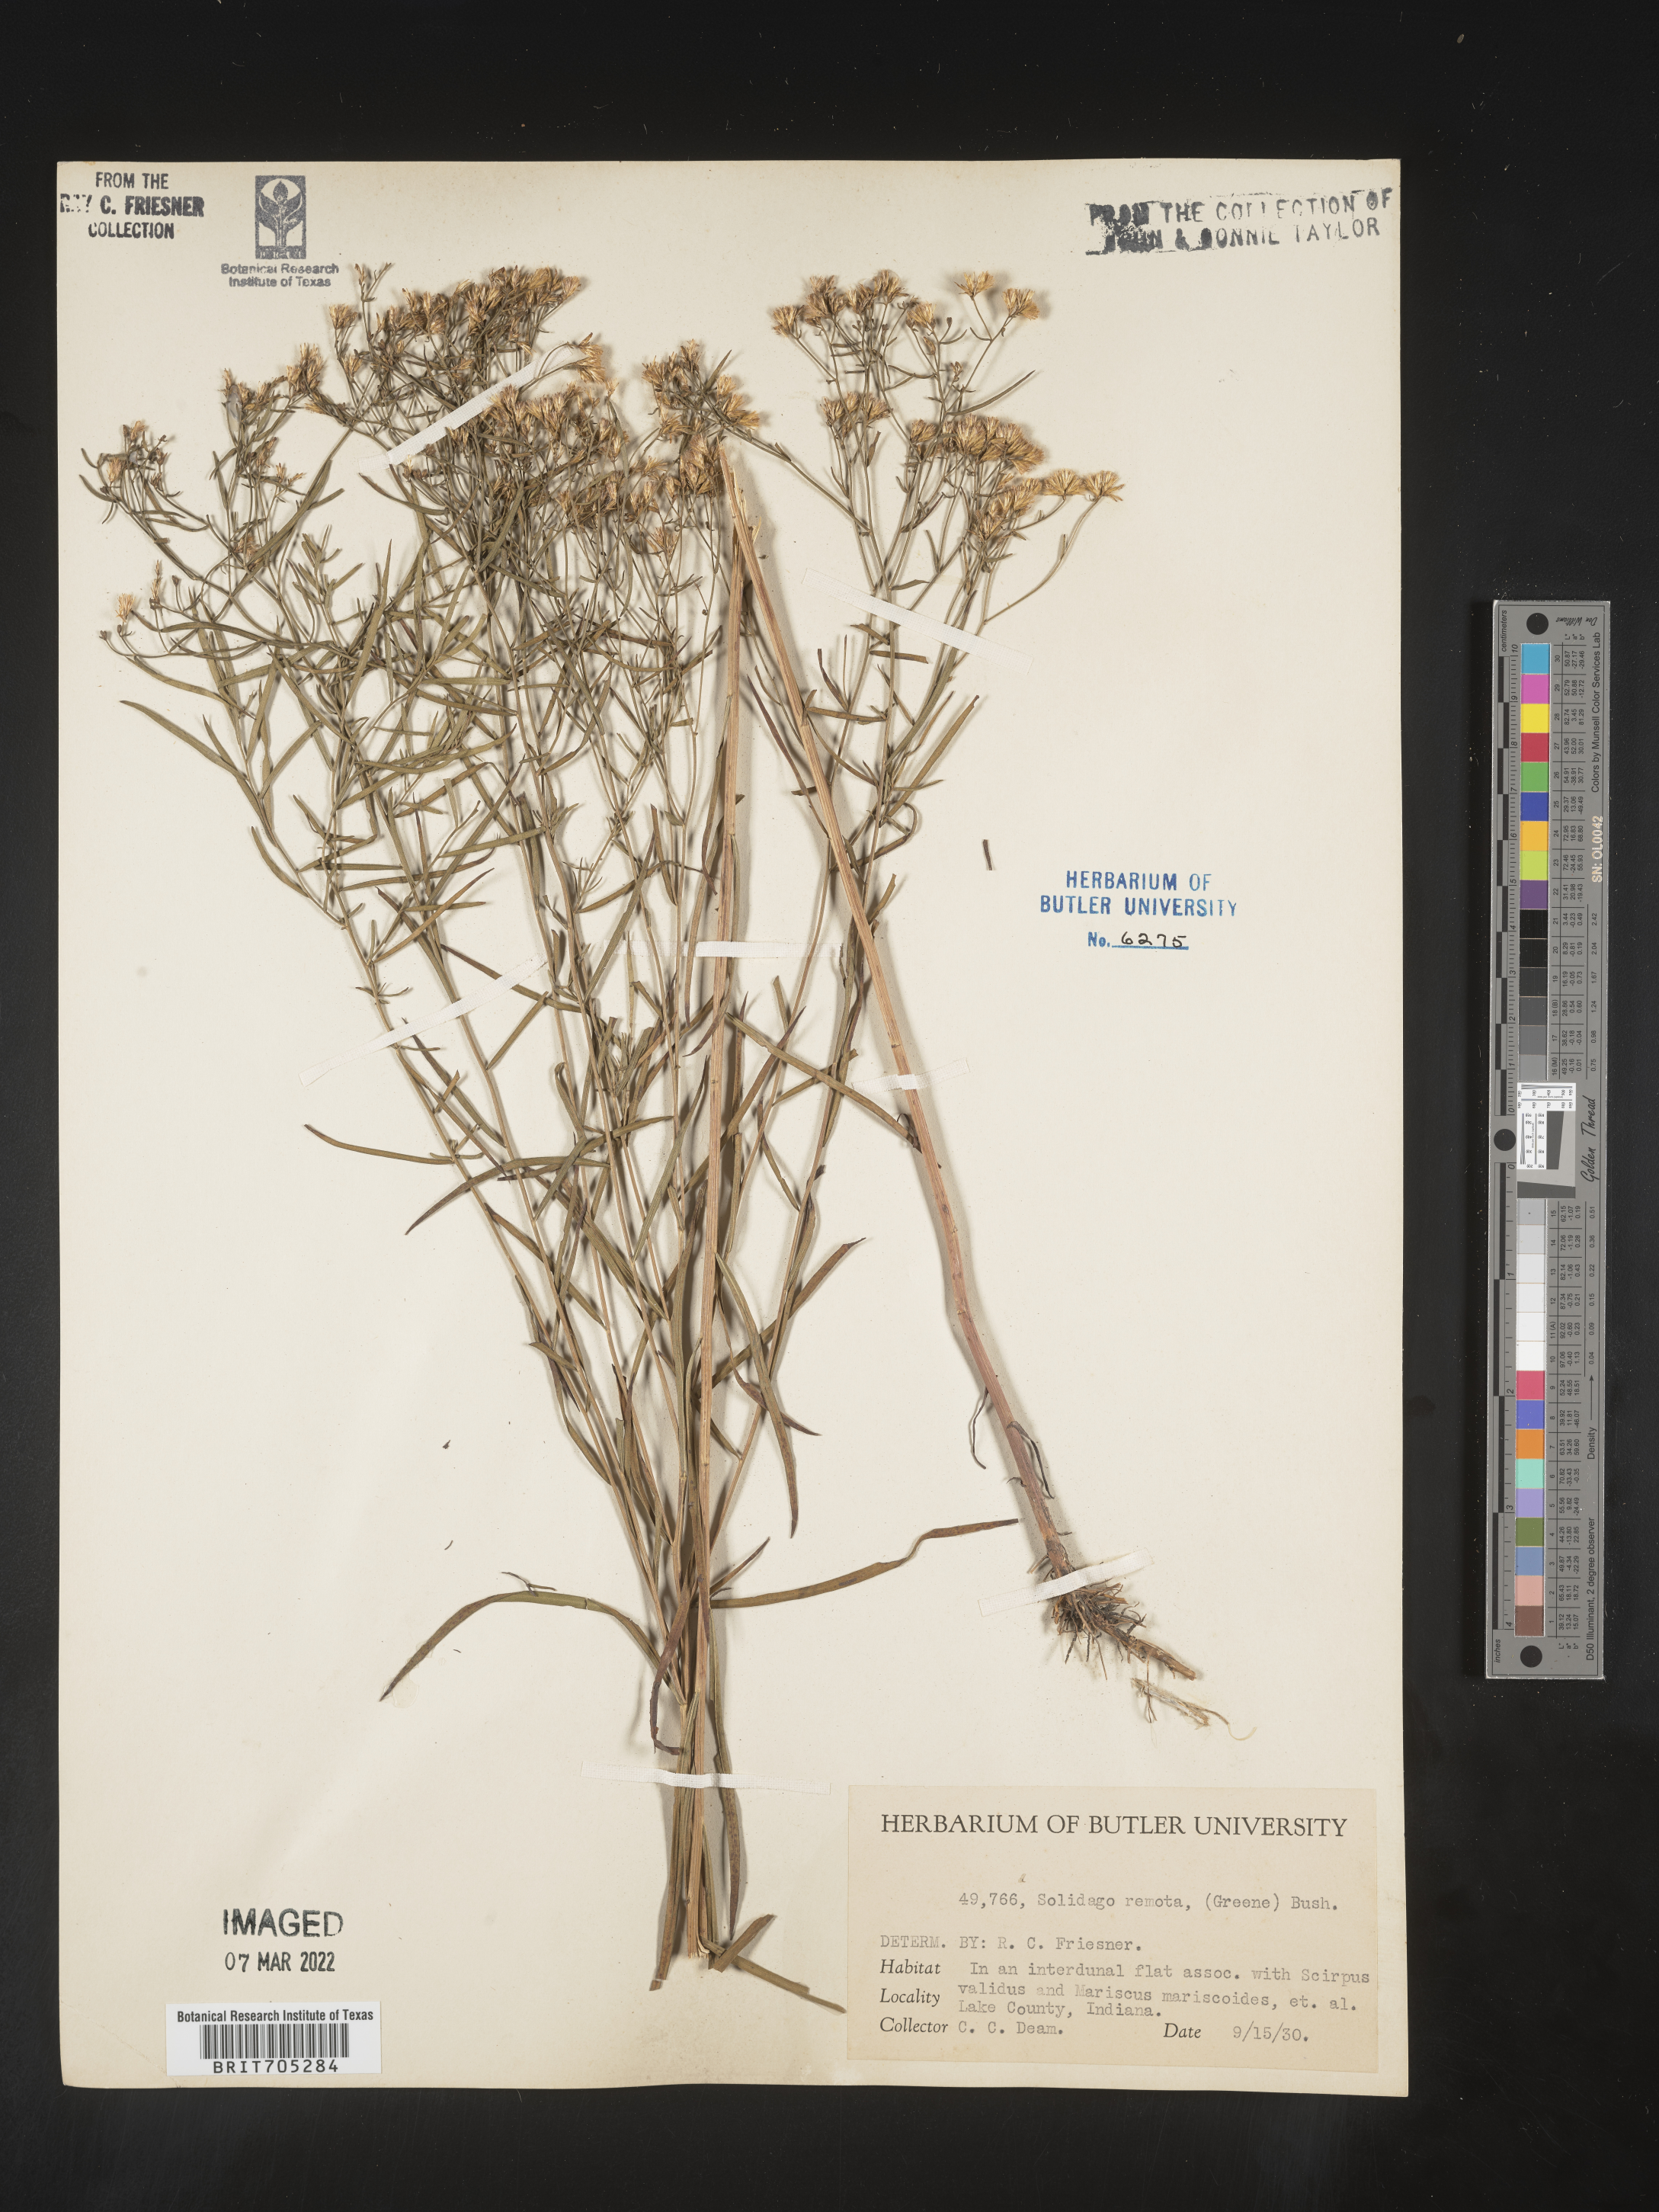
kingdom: Plantae
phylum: Tracheophyta
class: Magnoliopsida
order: Asterales
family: Asteraceae
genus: Euthamia
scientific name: Euthamia gymnospermoides
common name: Great plains goldentop
